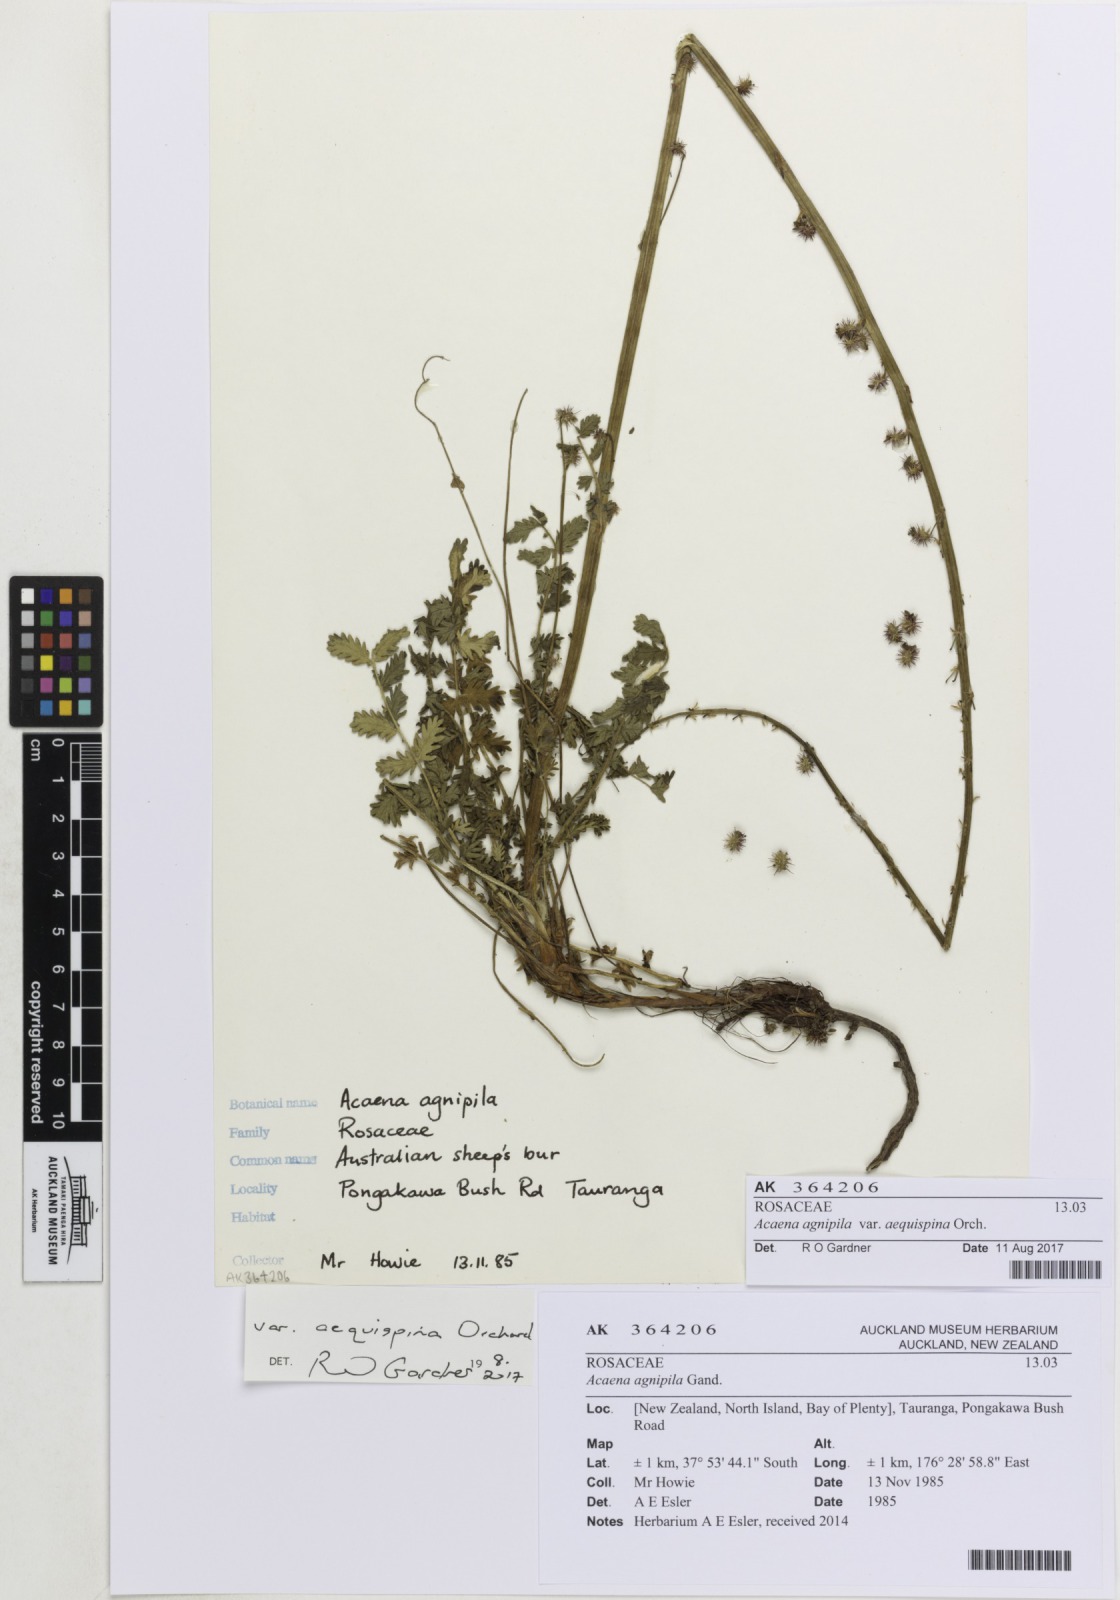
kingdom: Plantae
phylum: Tracheophyta
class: Magnoliopsida
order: Rosales
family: Rosaceae
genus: Acaena
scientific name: Acaena agnipila
